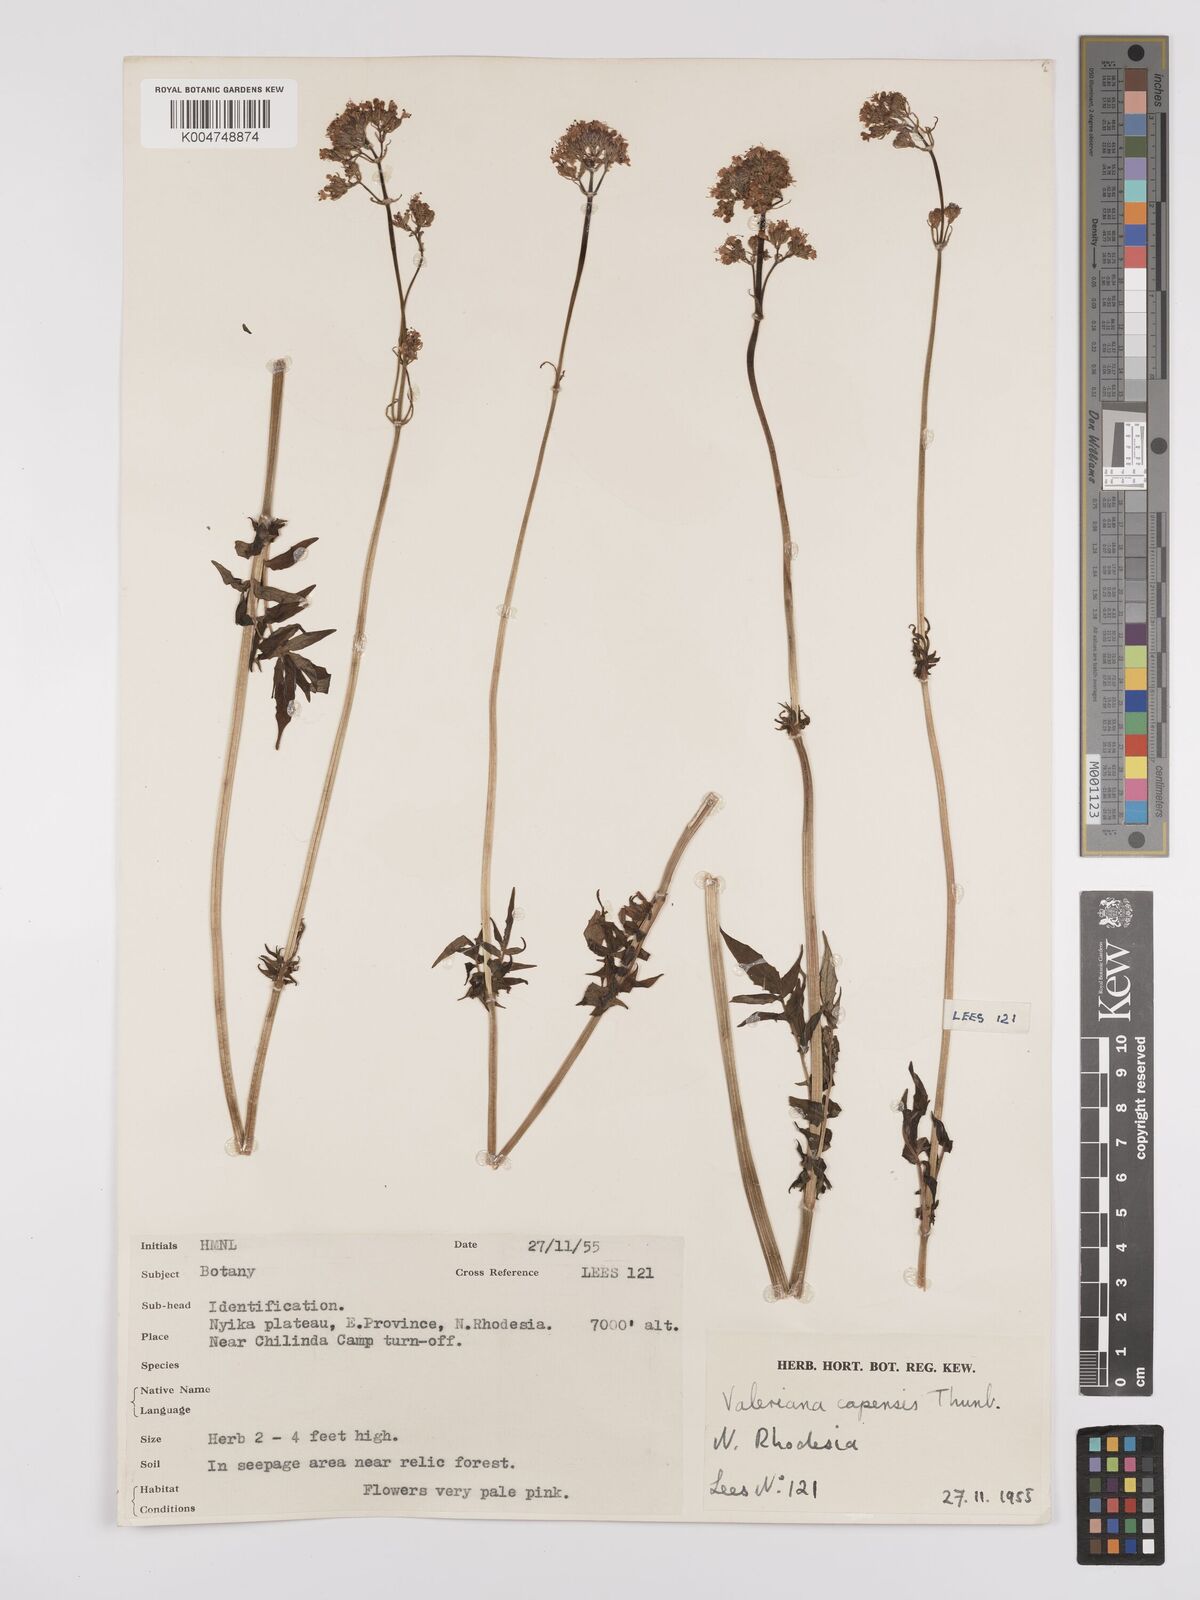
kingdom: Plantae
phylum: Tracheophyta
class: Magnoliopsida
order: Dipsacales
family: Caprifoliaceae
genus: Valeriana
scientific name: Valeriana capensis
